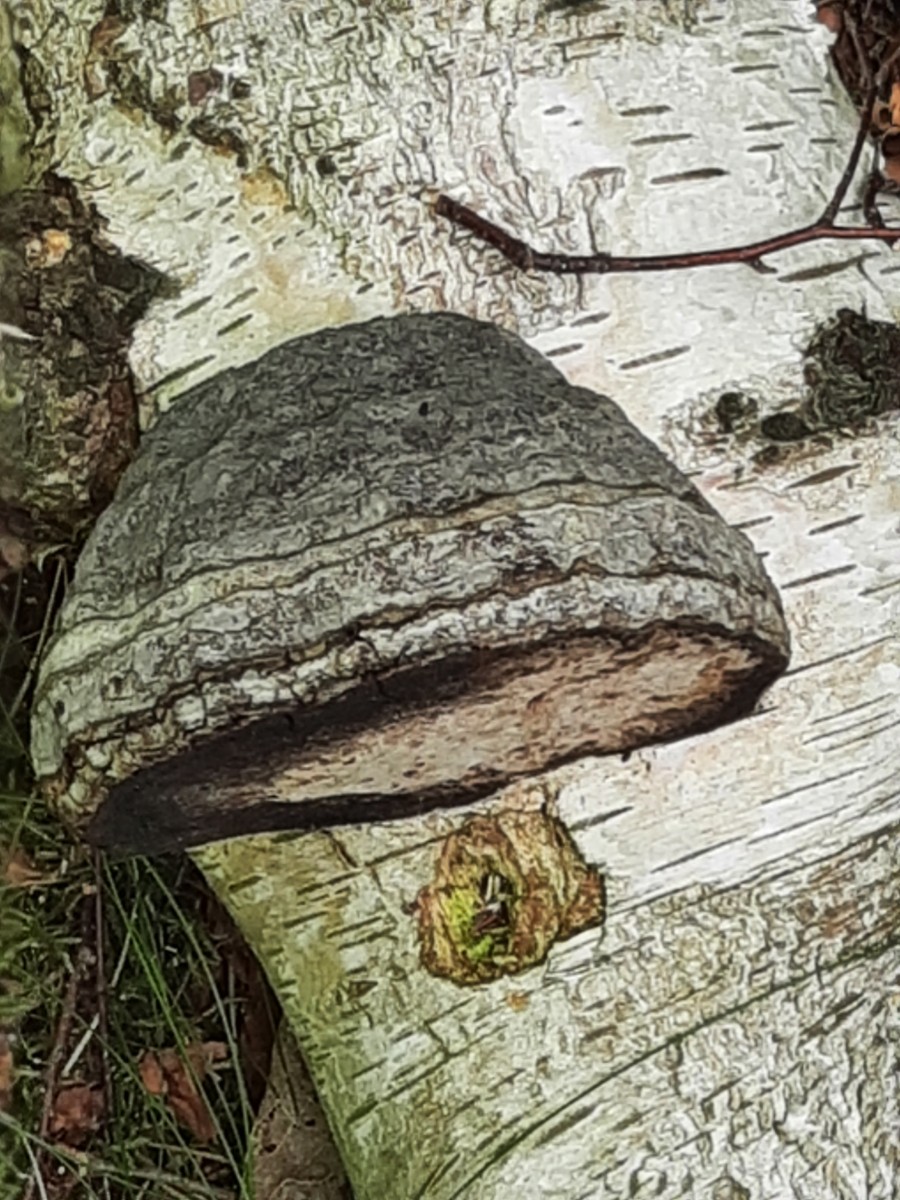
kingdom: Fungi
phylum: Basidiomycota
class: Agaricomycetes
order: Polyporales
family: Polyporaceae
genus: Fomes
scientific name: Fomes fomentarius
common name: tøndersvamp
